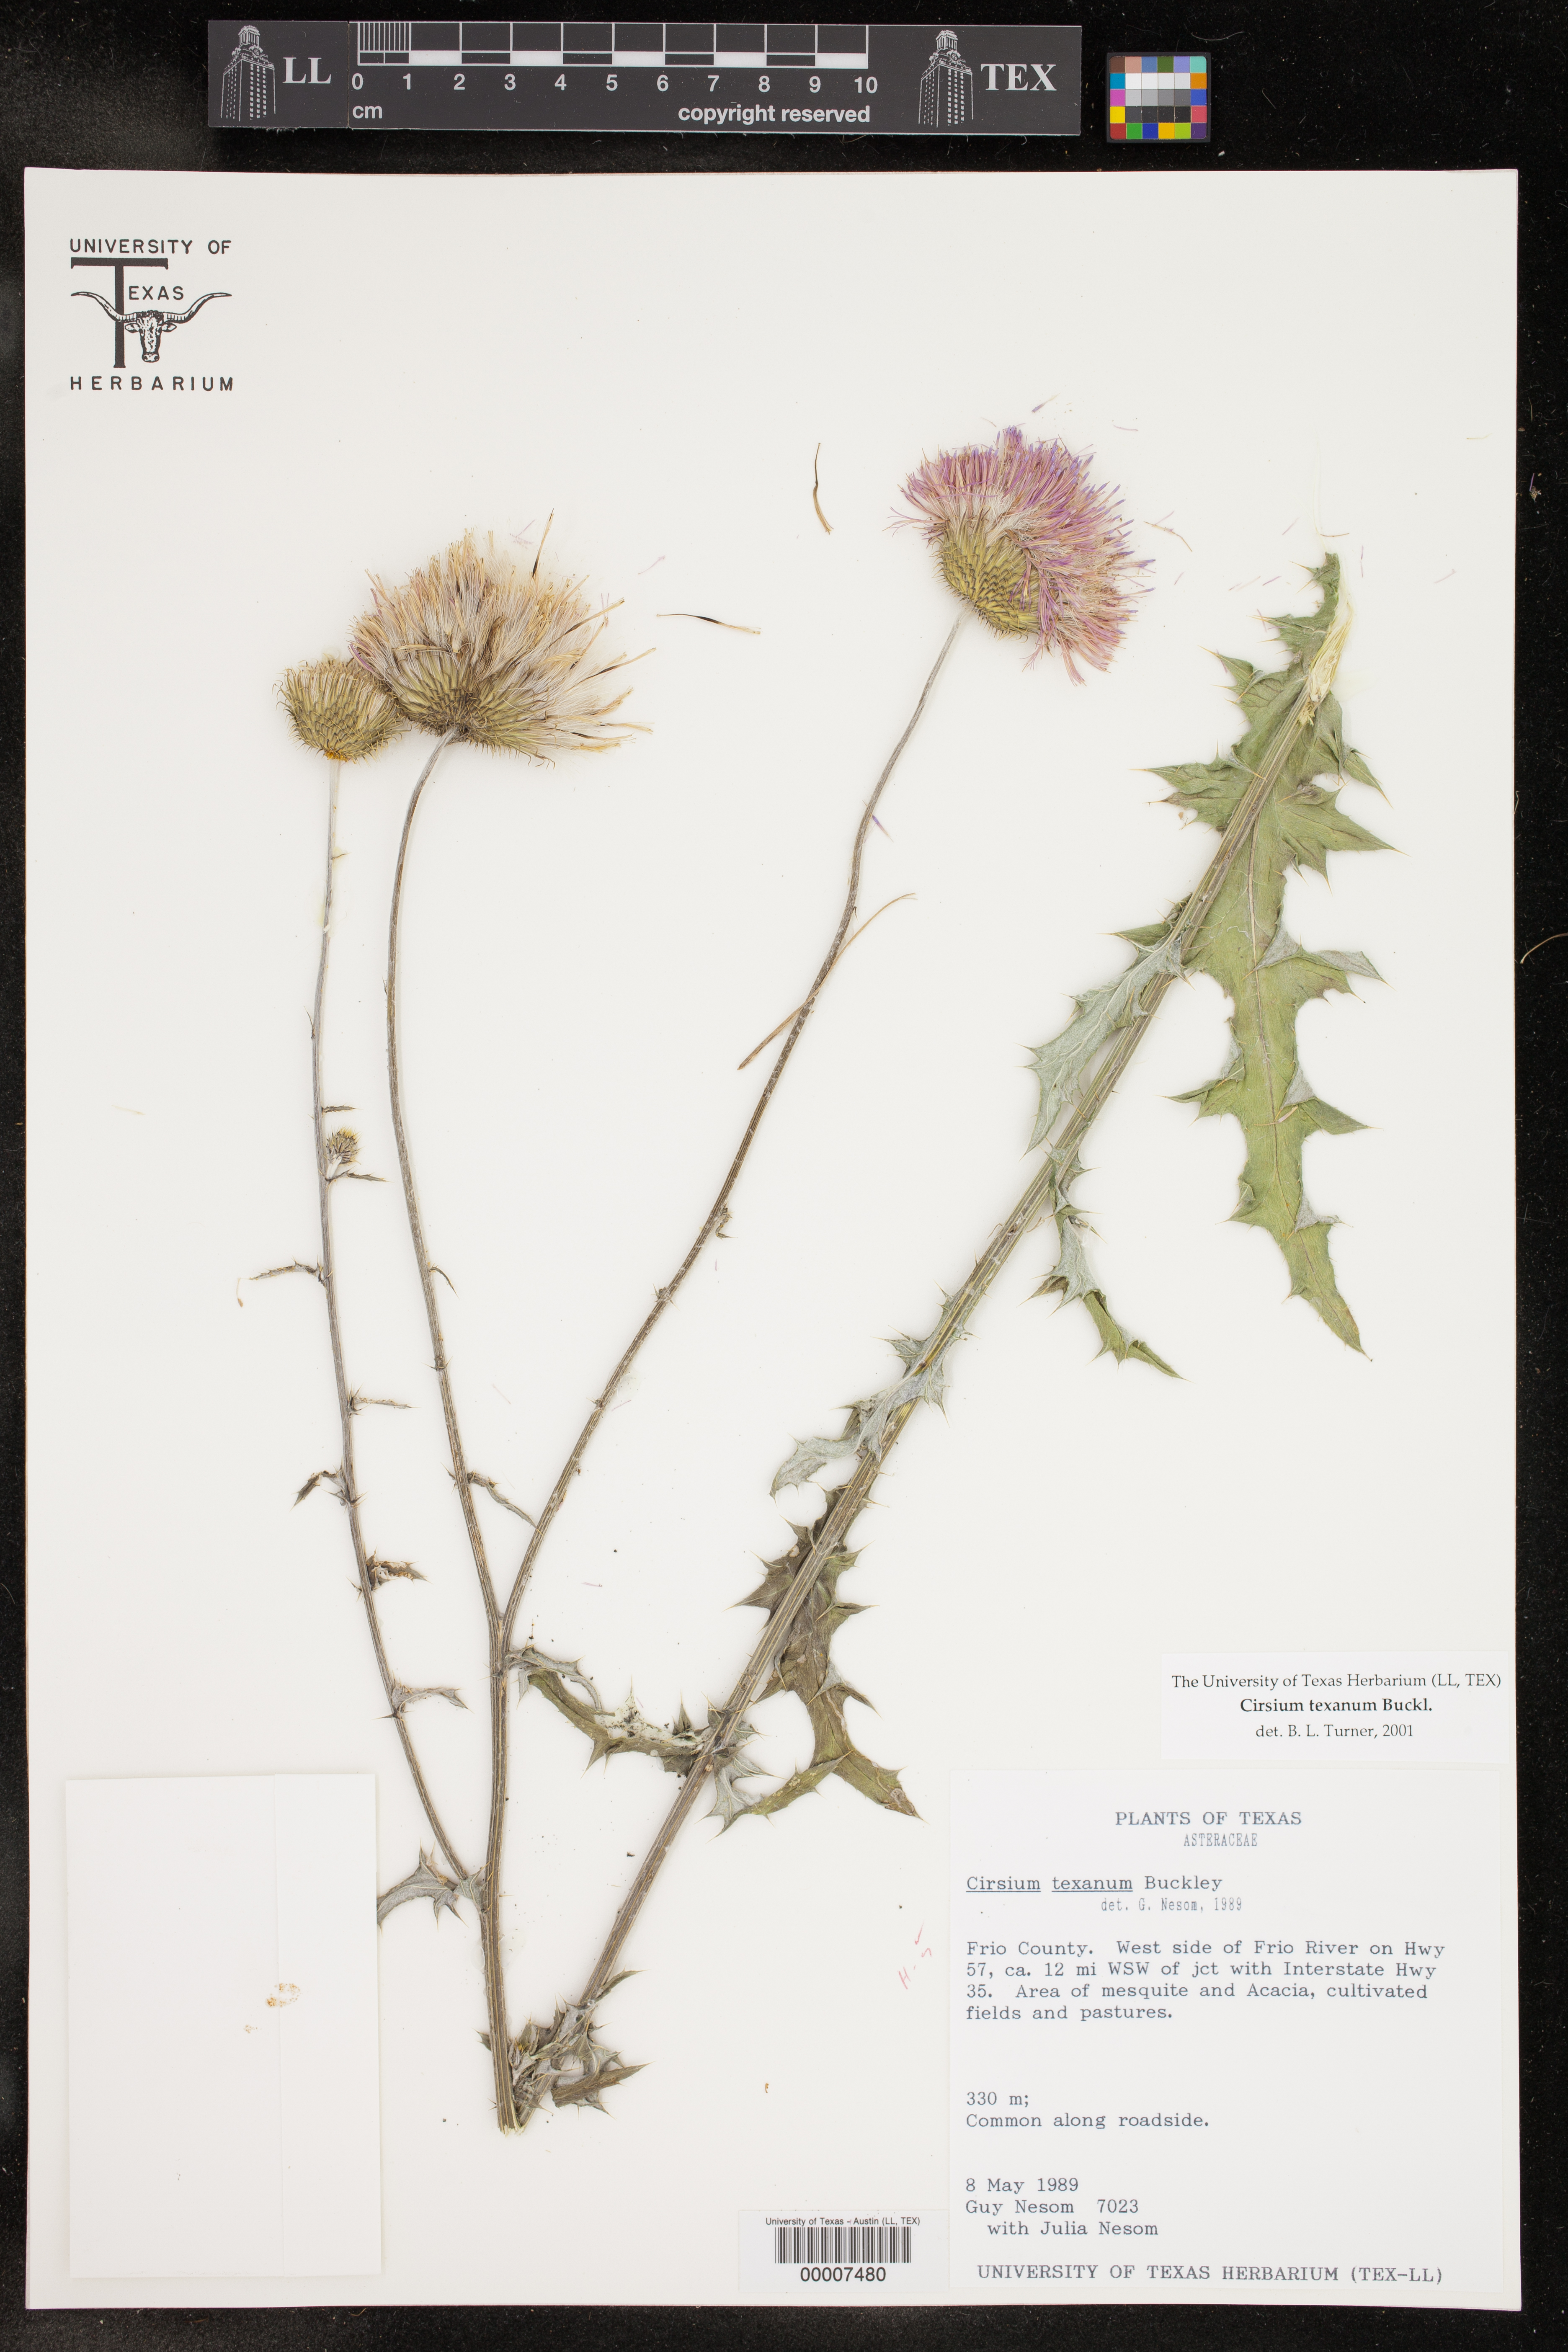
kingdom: Plantae
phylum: Tracheophyta
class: Magnoliopsida
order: Asterales
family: Asteraceae
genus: Cirsium
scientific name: Cirsium texanum
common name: Texas purple thistle
